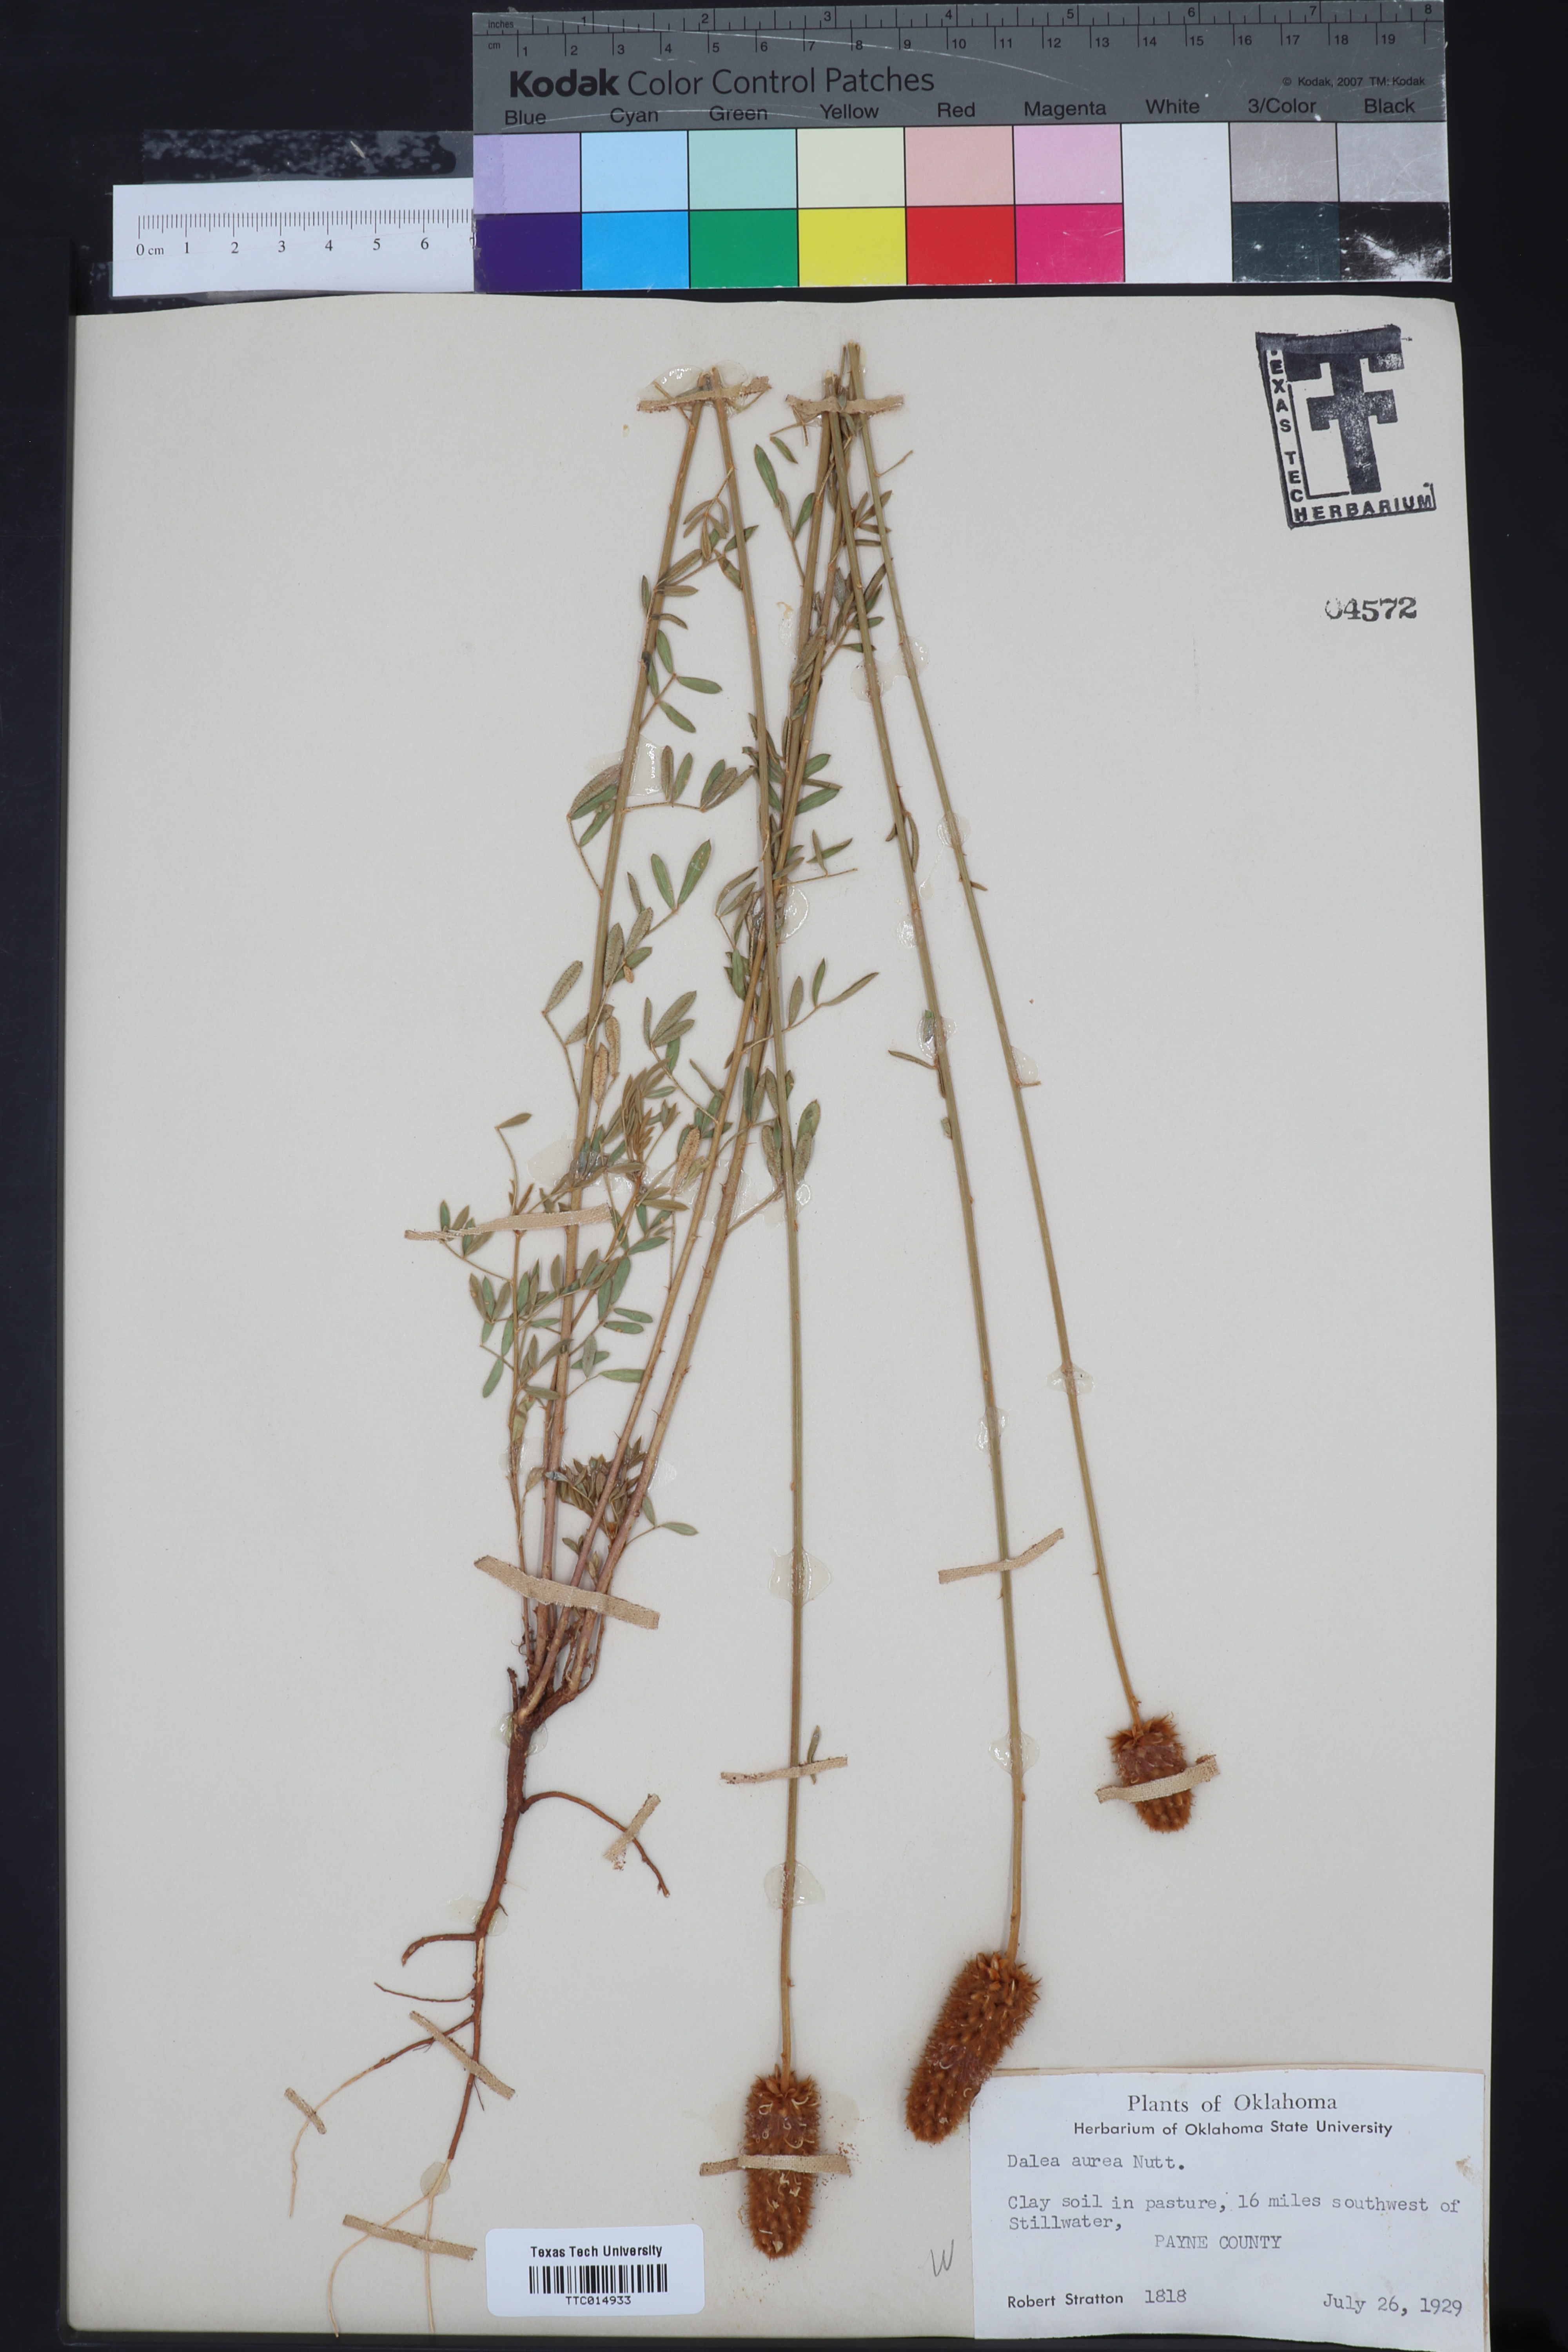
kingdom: Plantae
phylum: Tracheophyta
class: Magnoliopsida
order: Fabales
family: Fabaceae
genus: Dalea
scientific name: Dalea aurea
